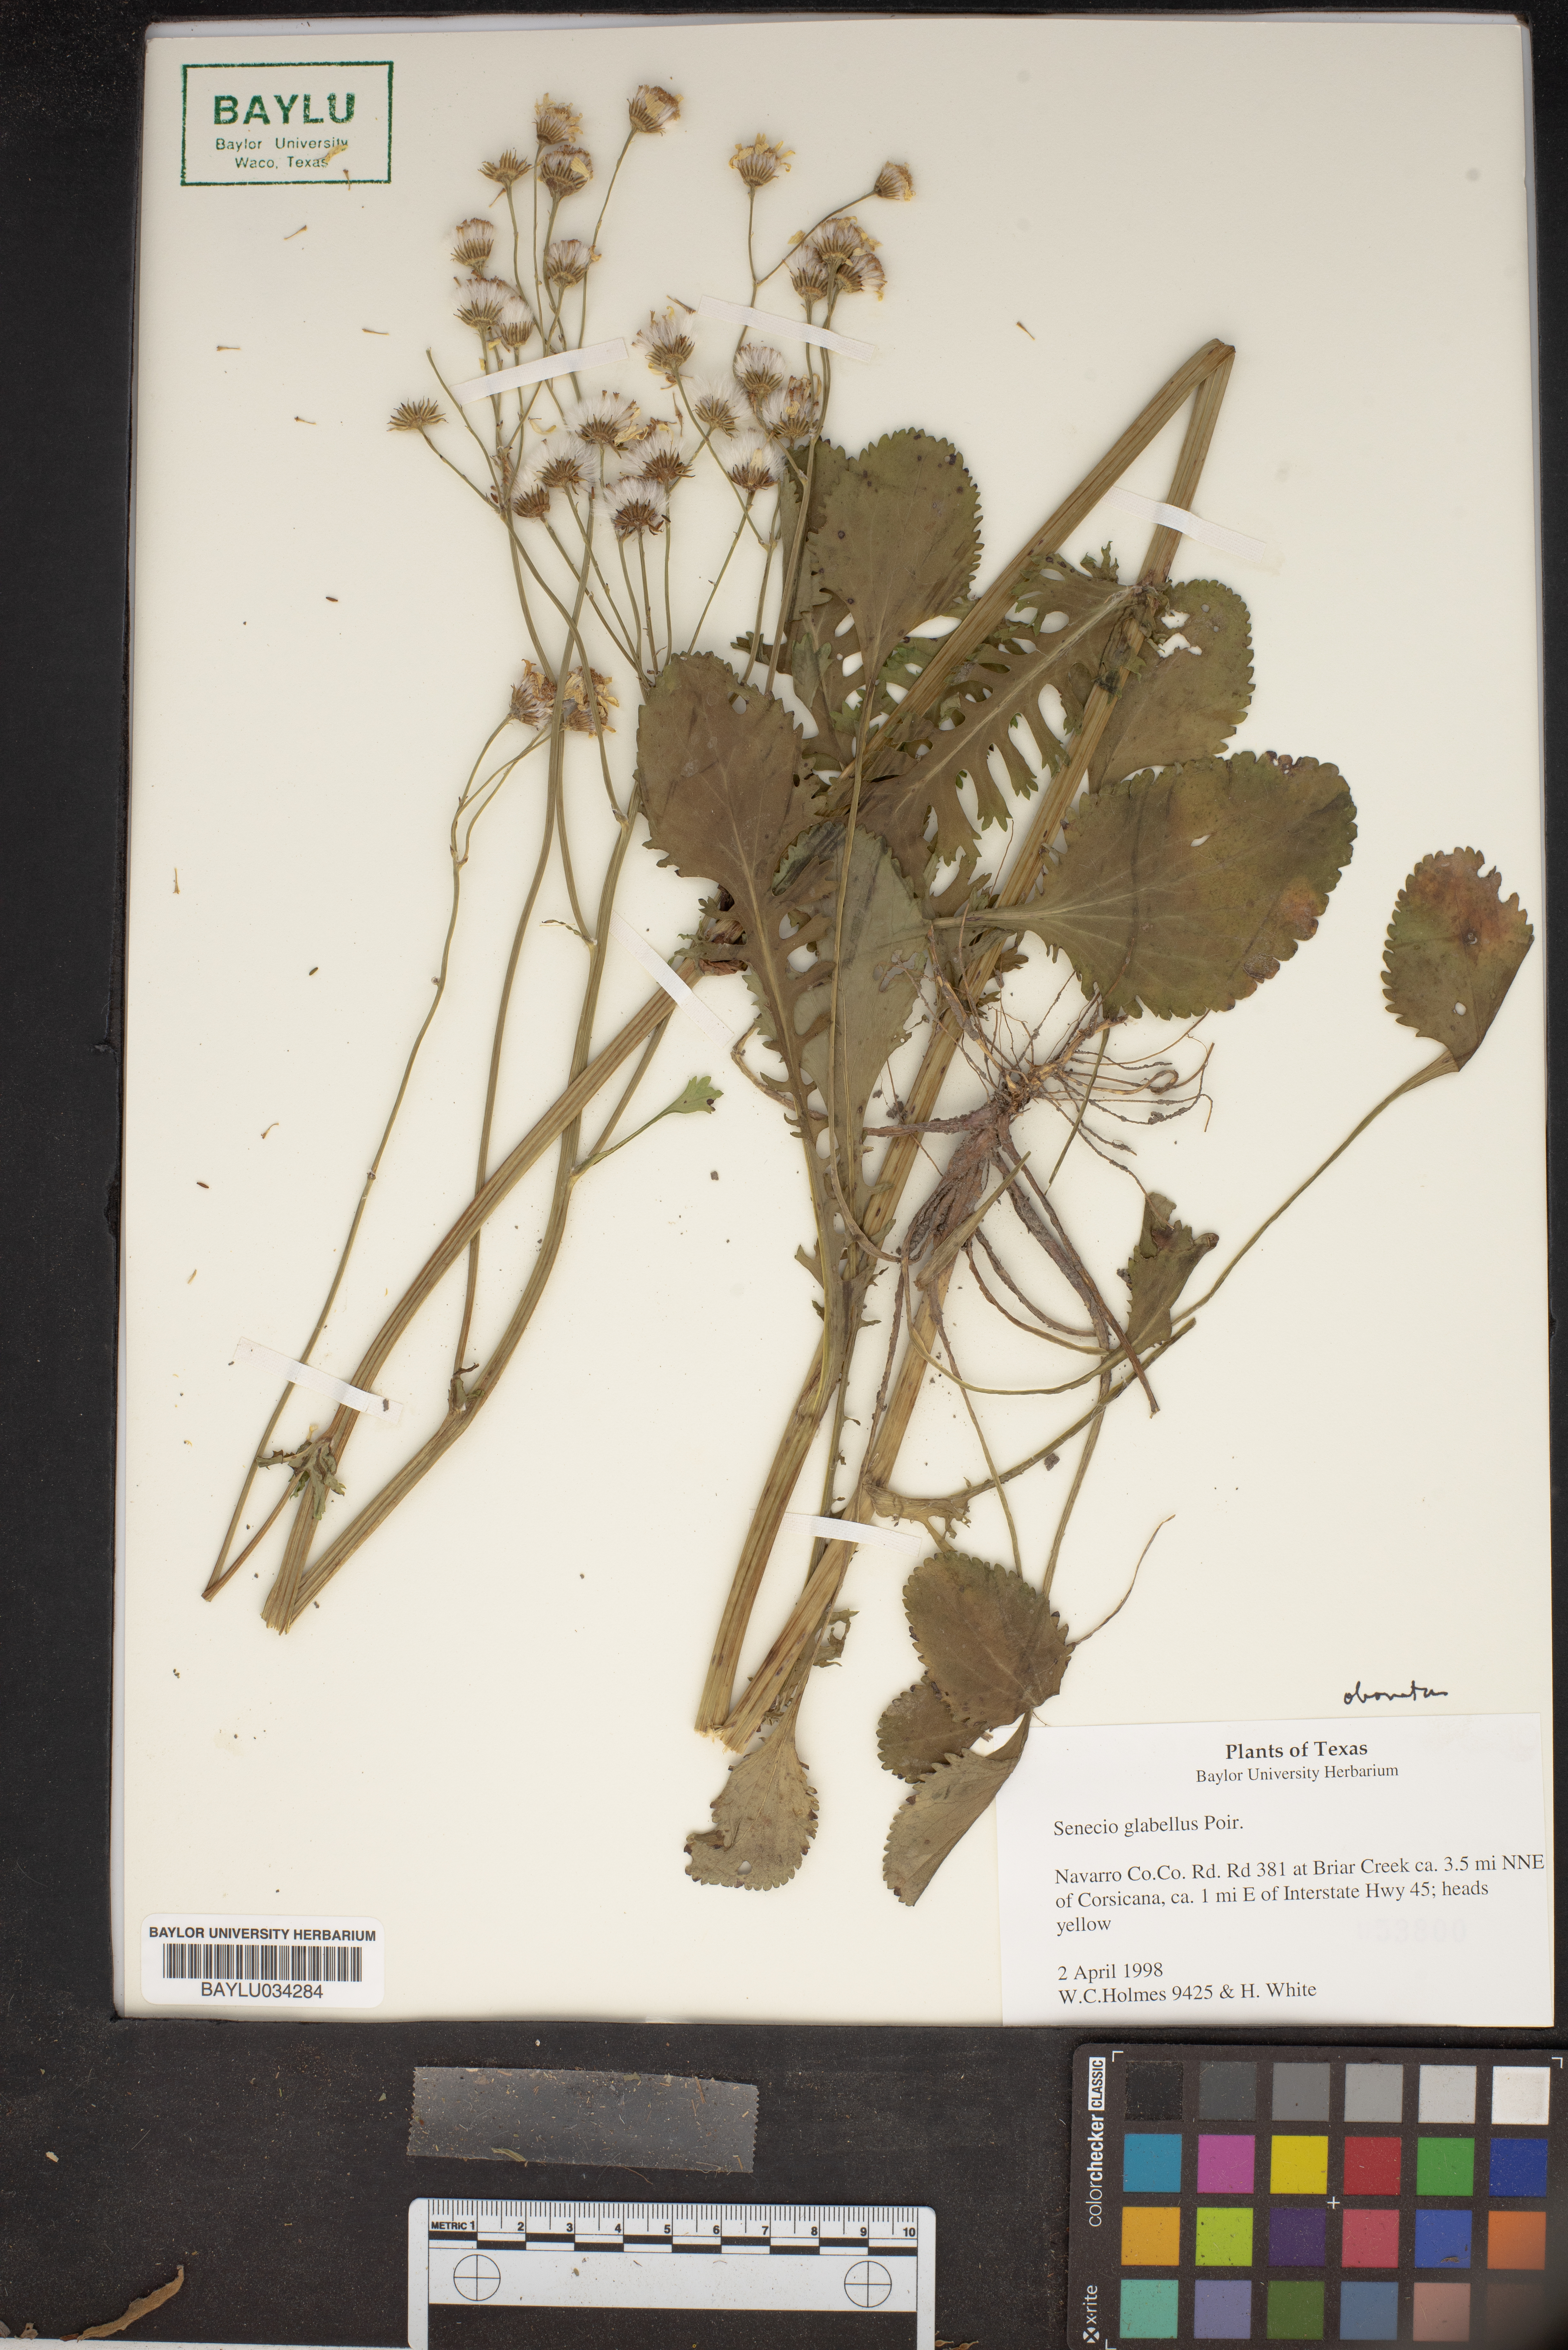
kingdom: Plantae
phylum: Tracheophyta
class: Magnoliopsida
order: Asterales
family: Asteraceae
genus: Tephroseris
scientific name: Tephroseris praticola
